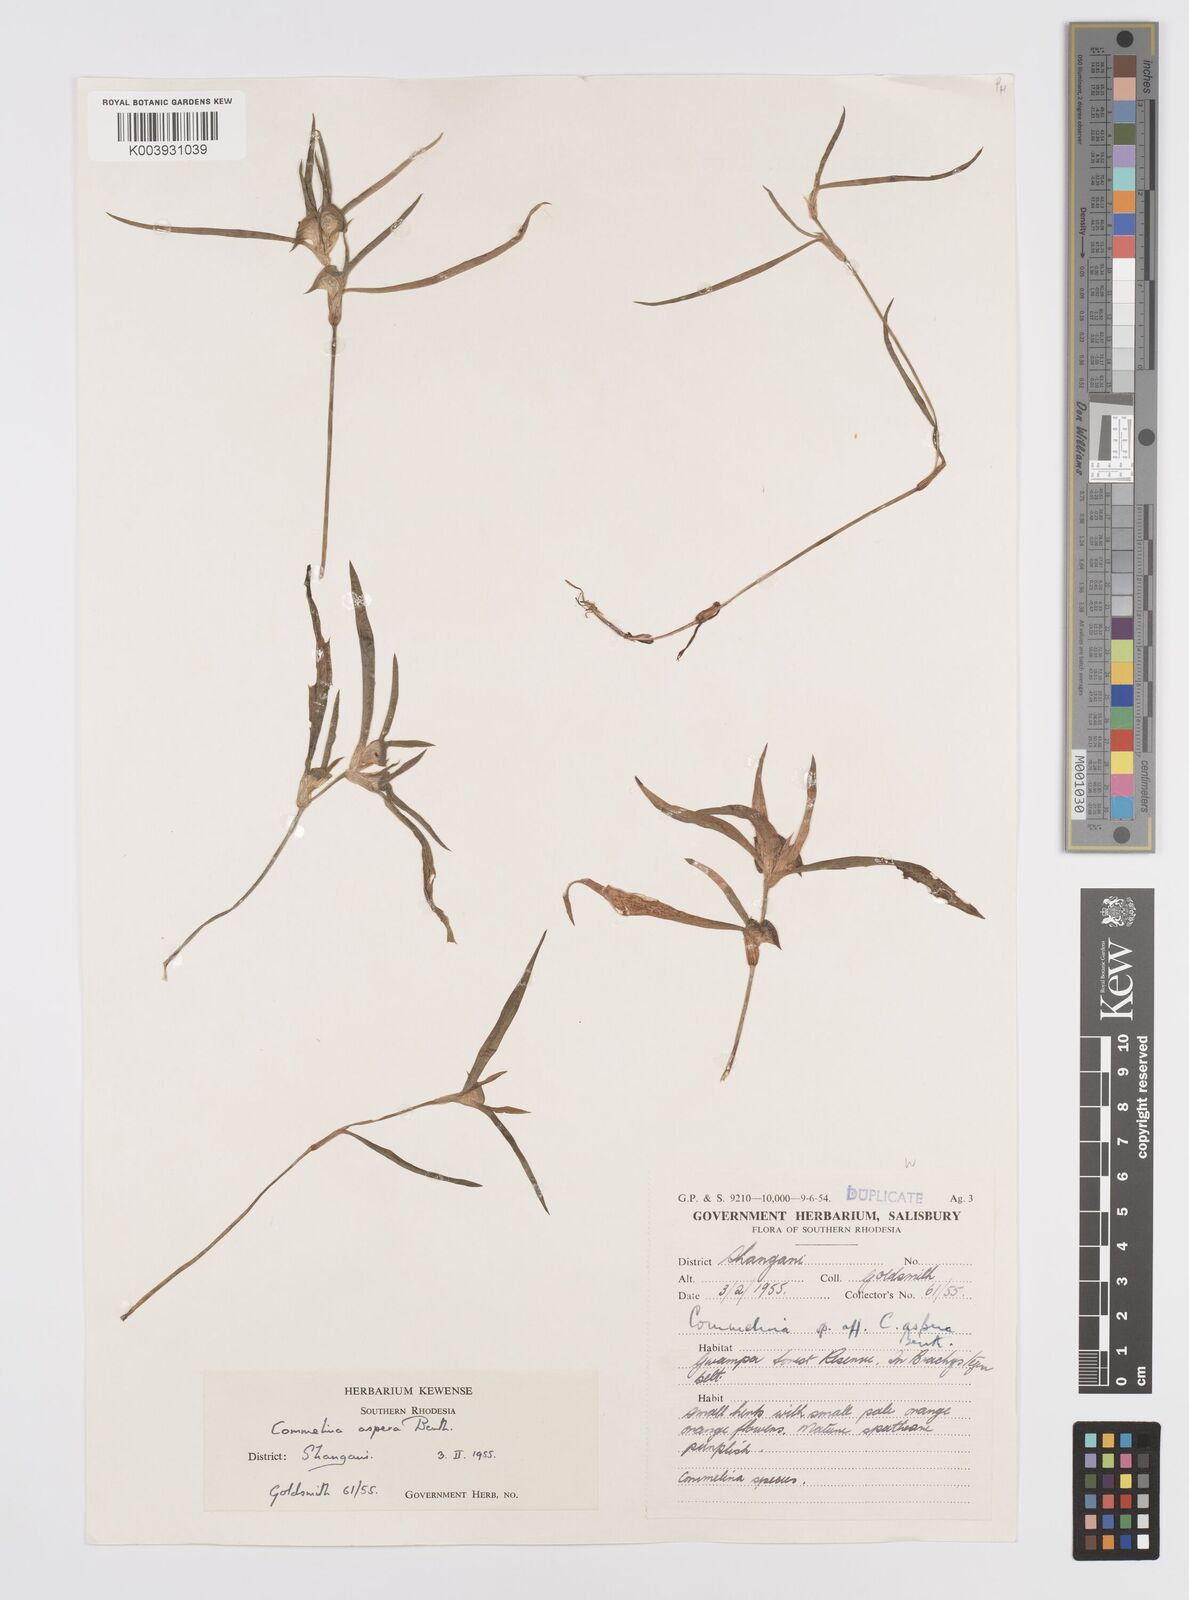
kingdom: Plantae
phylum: Tracheophyta
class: Liliopsida
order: Commelinales
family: Commelinaceae
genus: Commelina
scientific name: Commelina aspera
